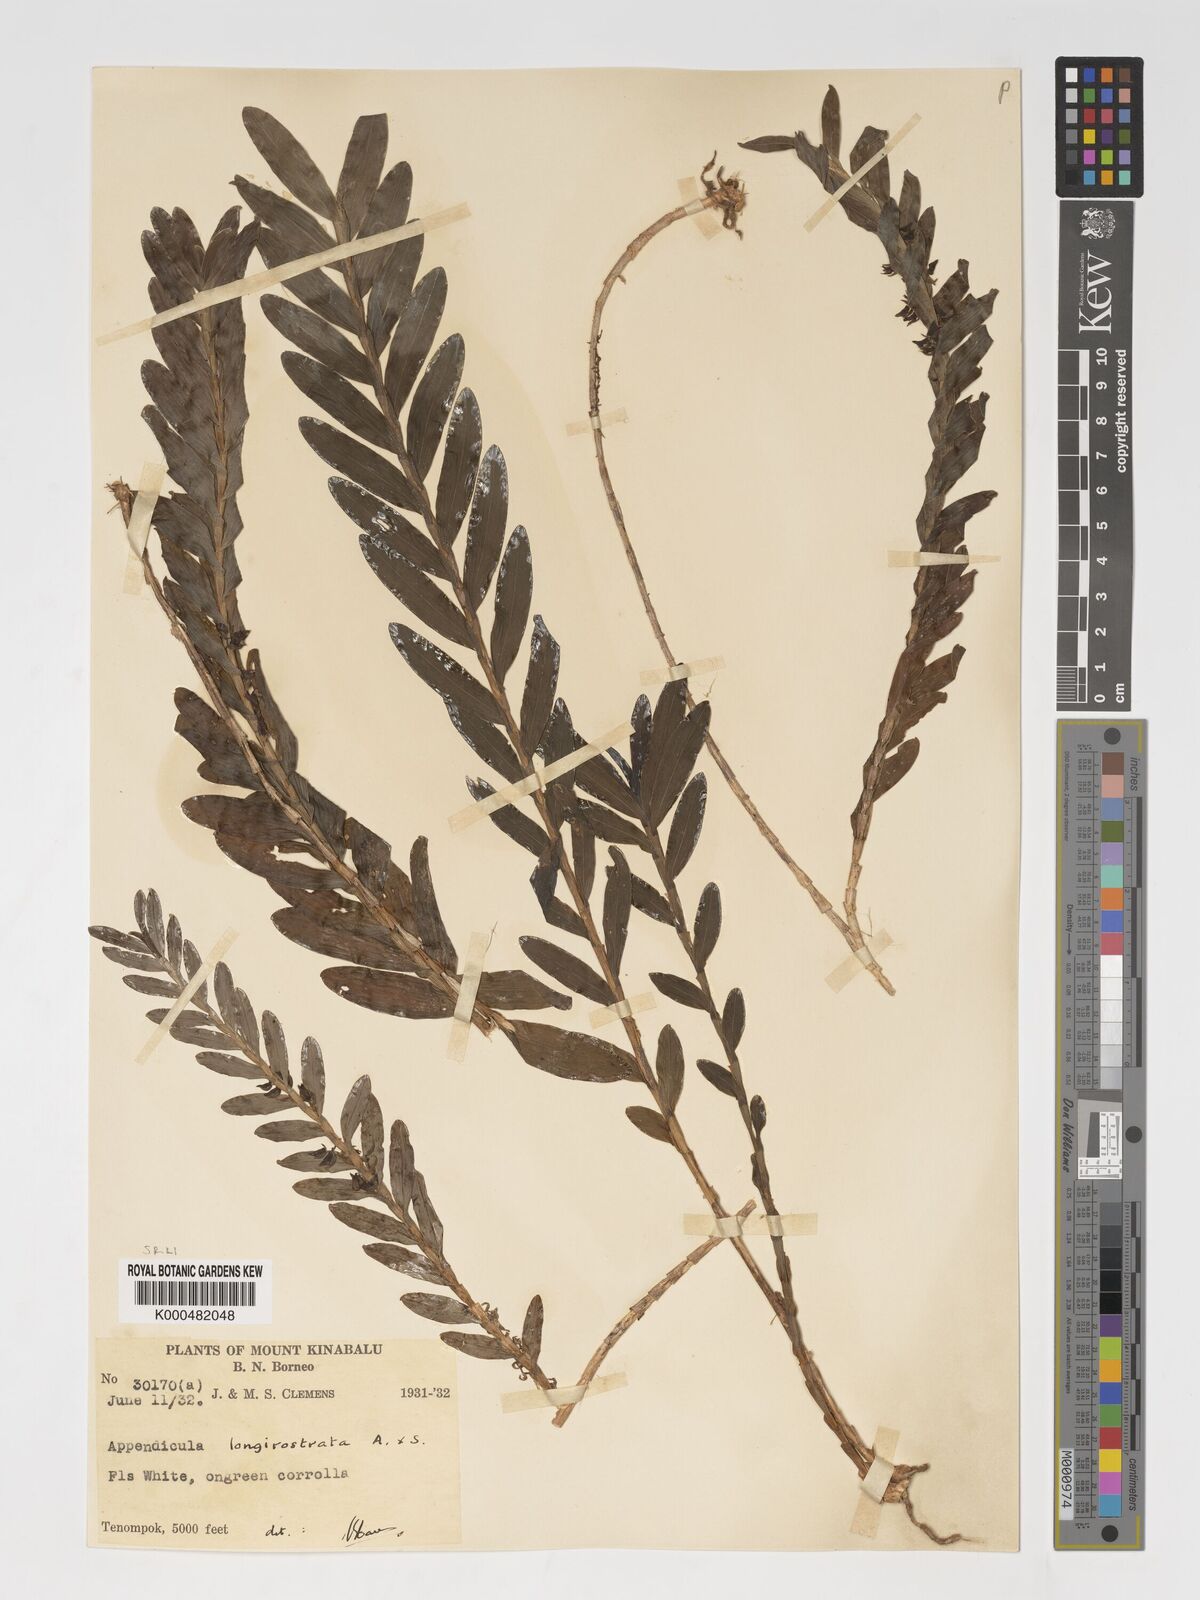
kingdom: Plantae
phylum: Tracheophyta
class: Liliopsida
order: Asparagales
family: Orchidaceae
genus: Appendicula
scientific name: Appendicula longirostrata
